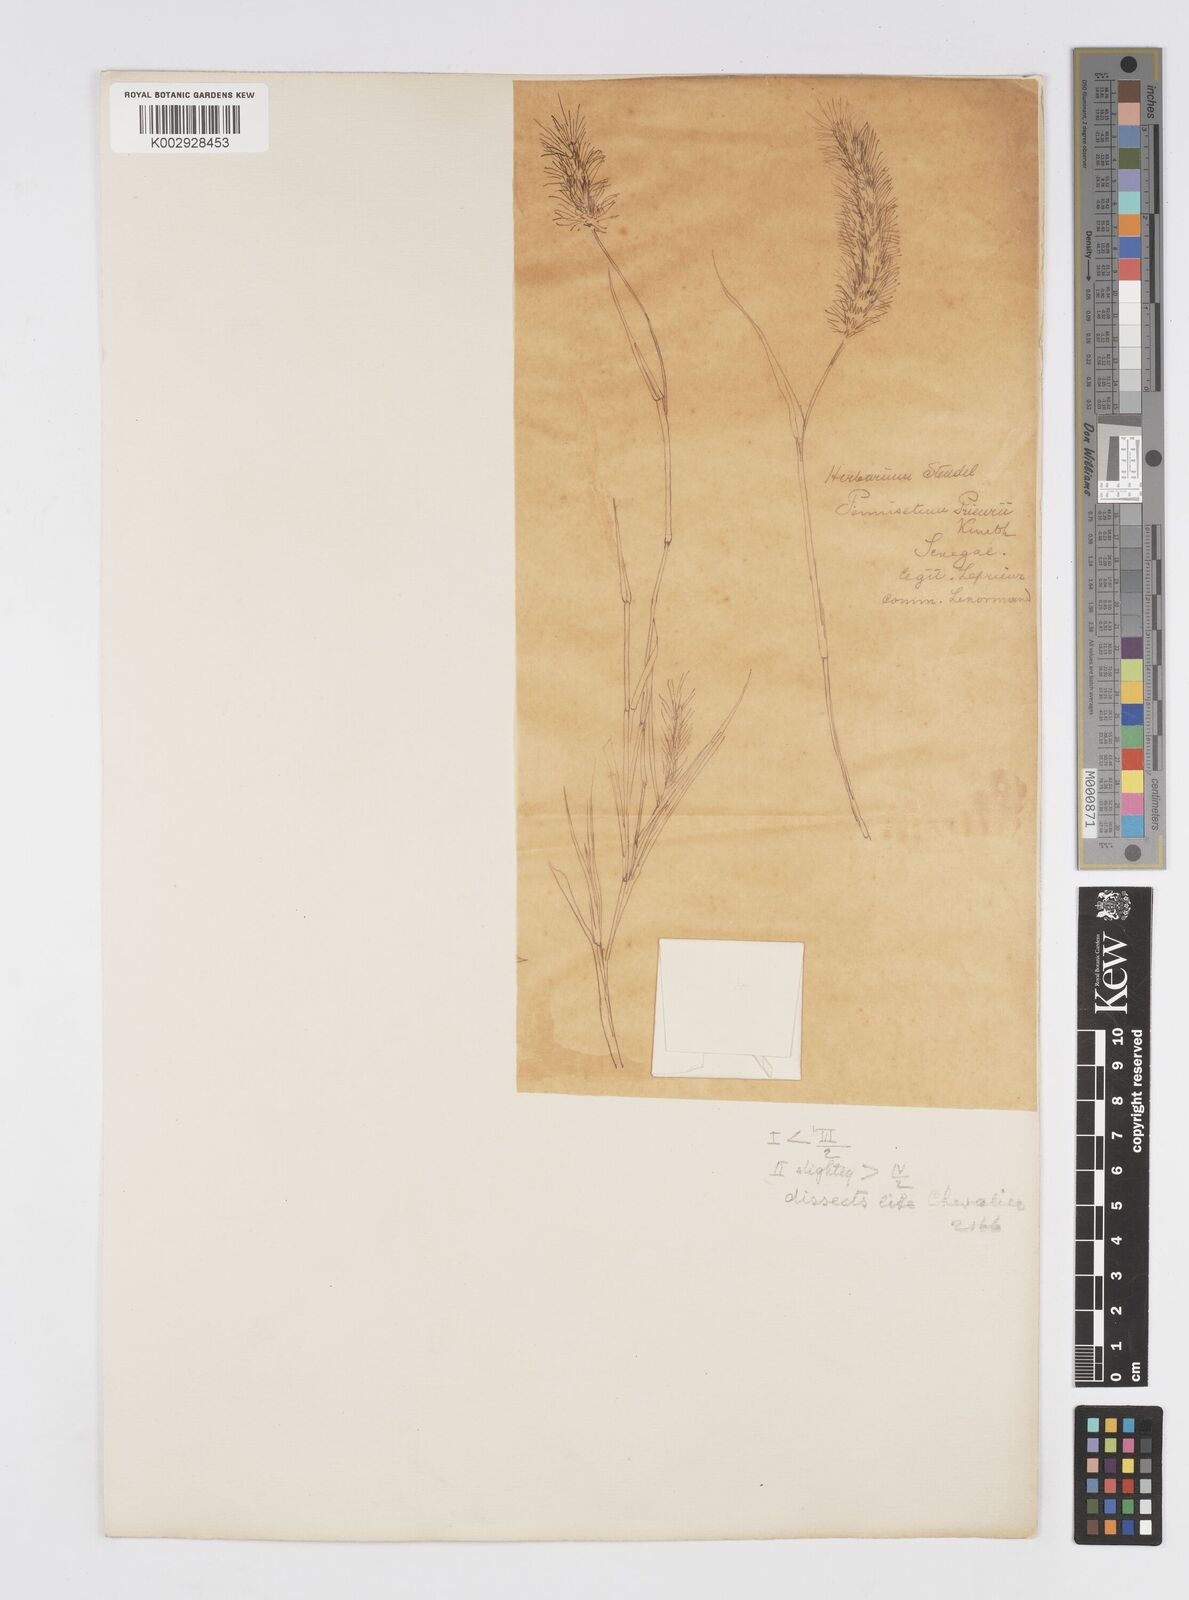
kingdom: Plantae
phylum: Tracheophyta
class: Liliopsida
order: Poales
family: Poaceae
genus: Cenchrus
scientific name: Cenchrus ciliaris
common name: Buffelgrass
